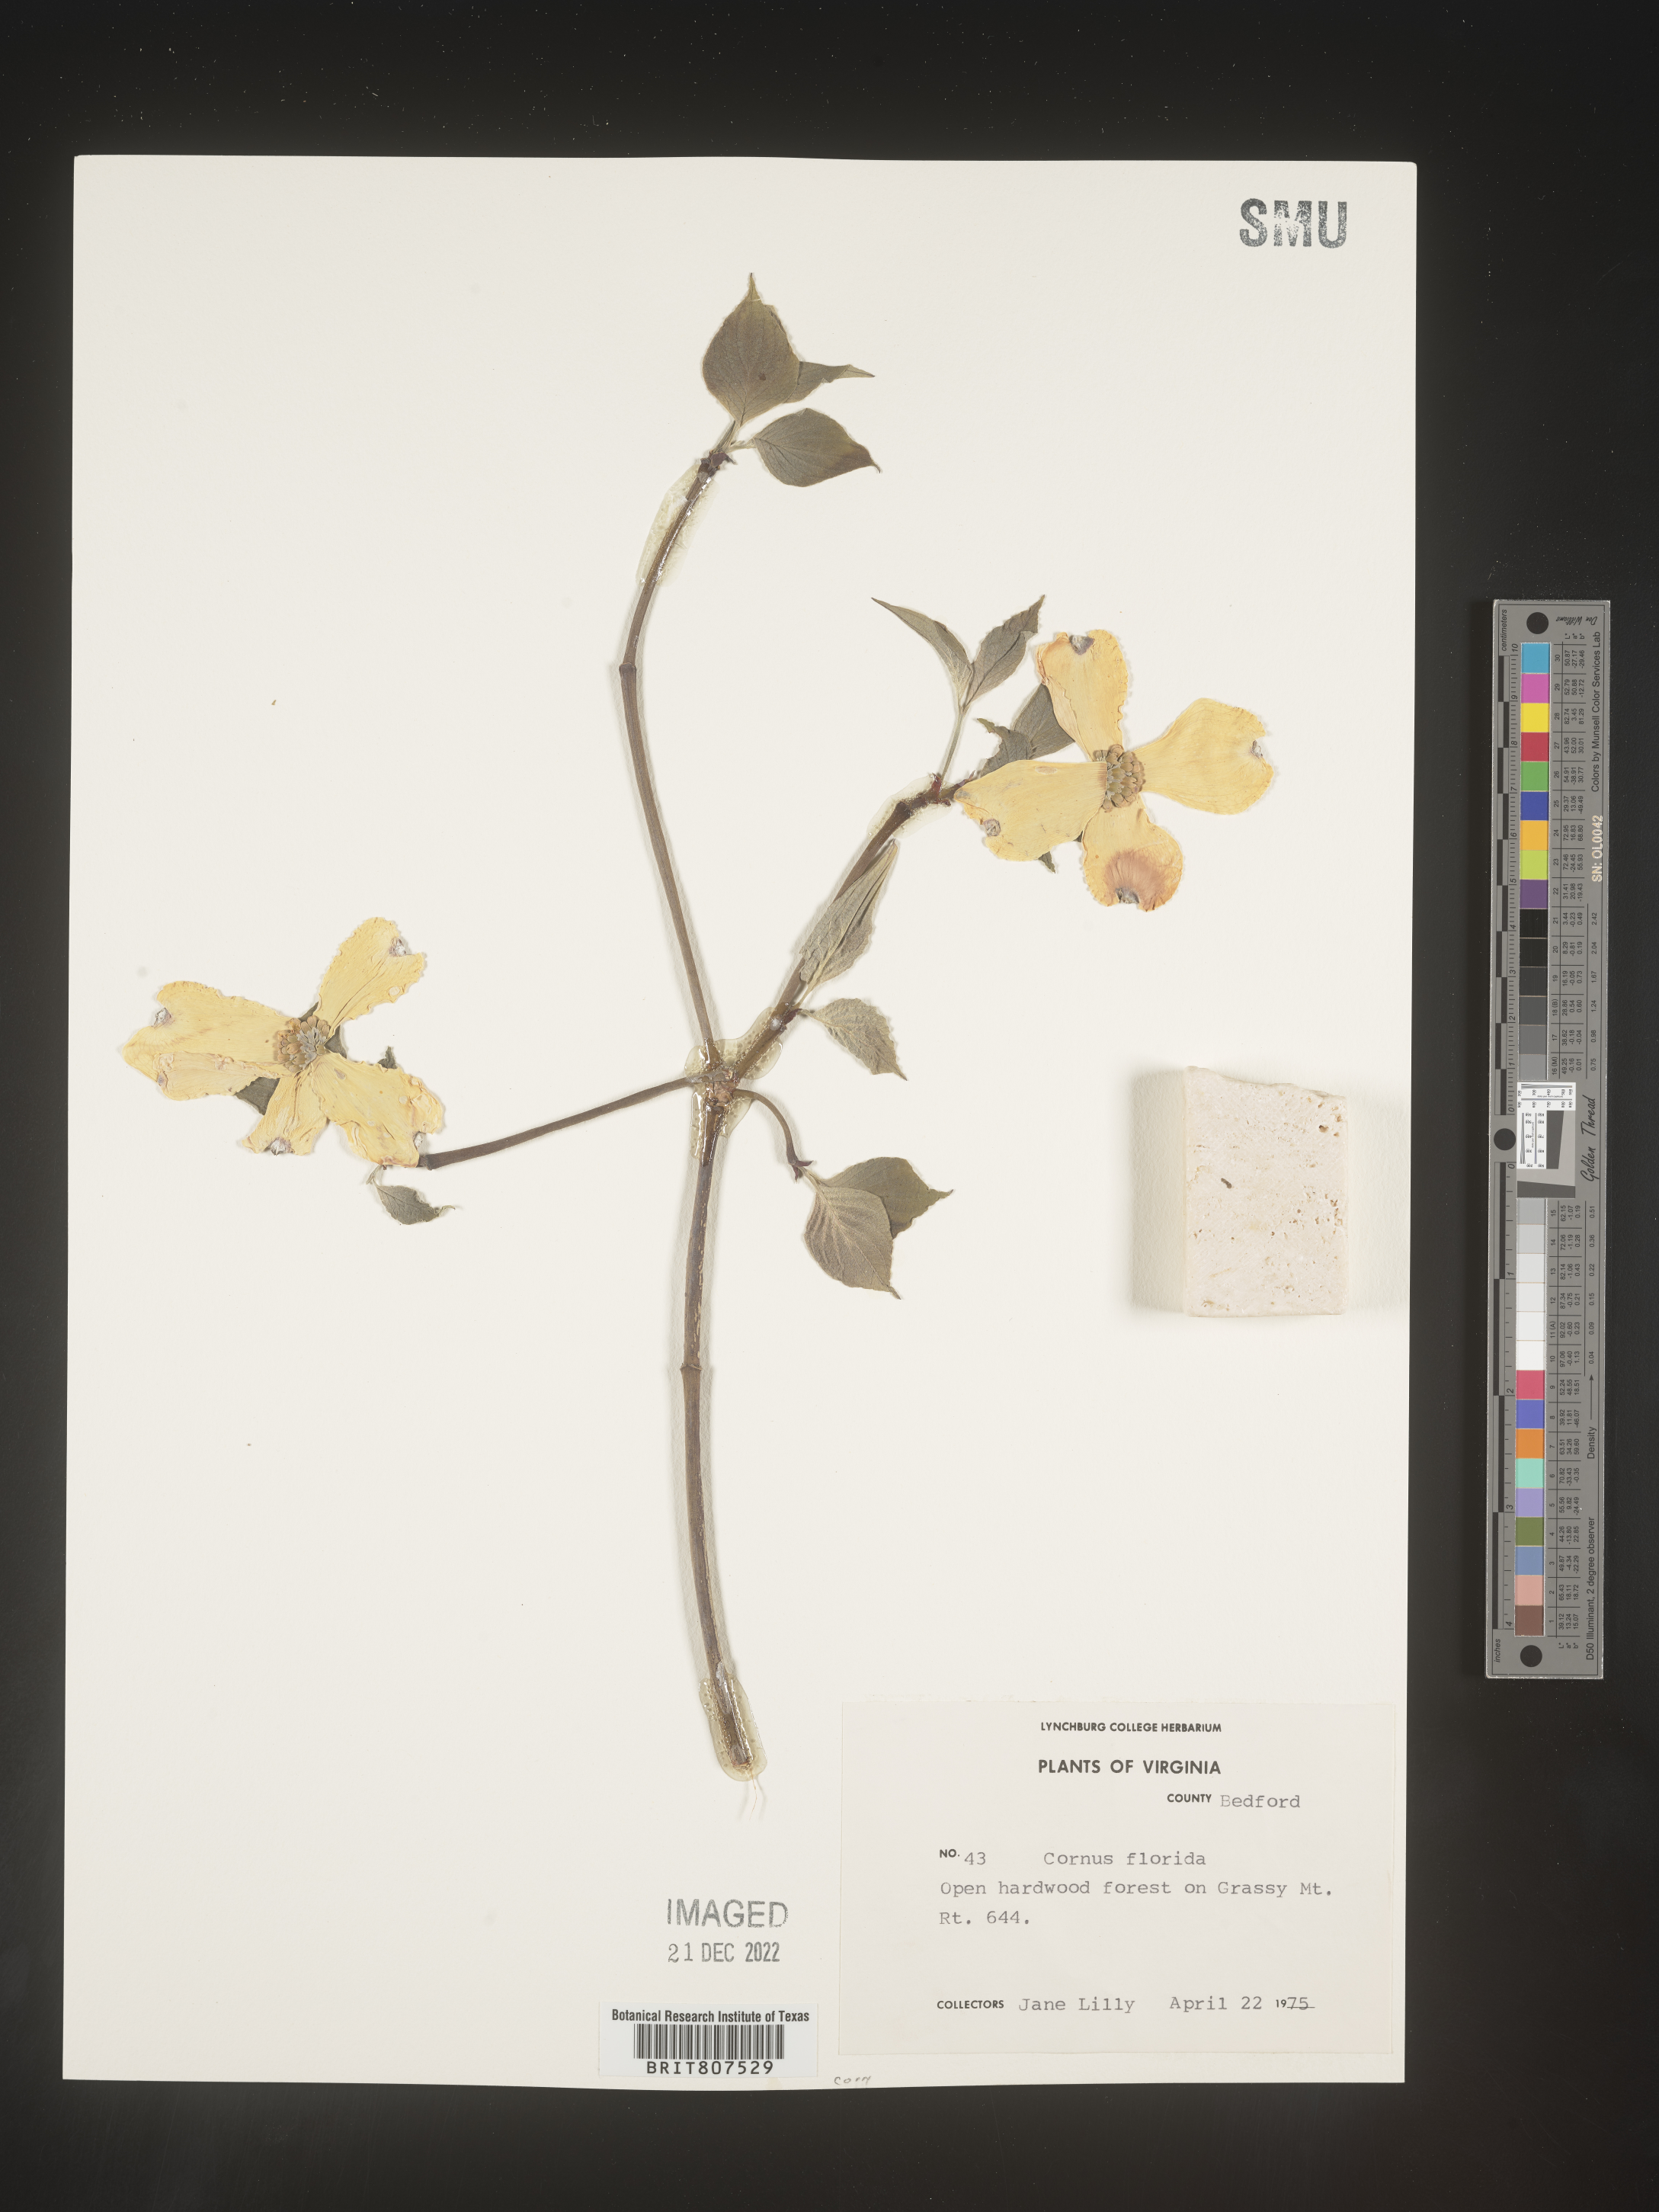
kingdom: Plantae
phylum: Tracheophyta
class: Magnoliopsida
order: Cornales
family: Cornaceae
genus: Cornus
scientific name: Cornus florida
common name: Flowering dogwood
